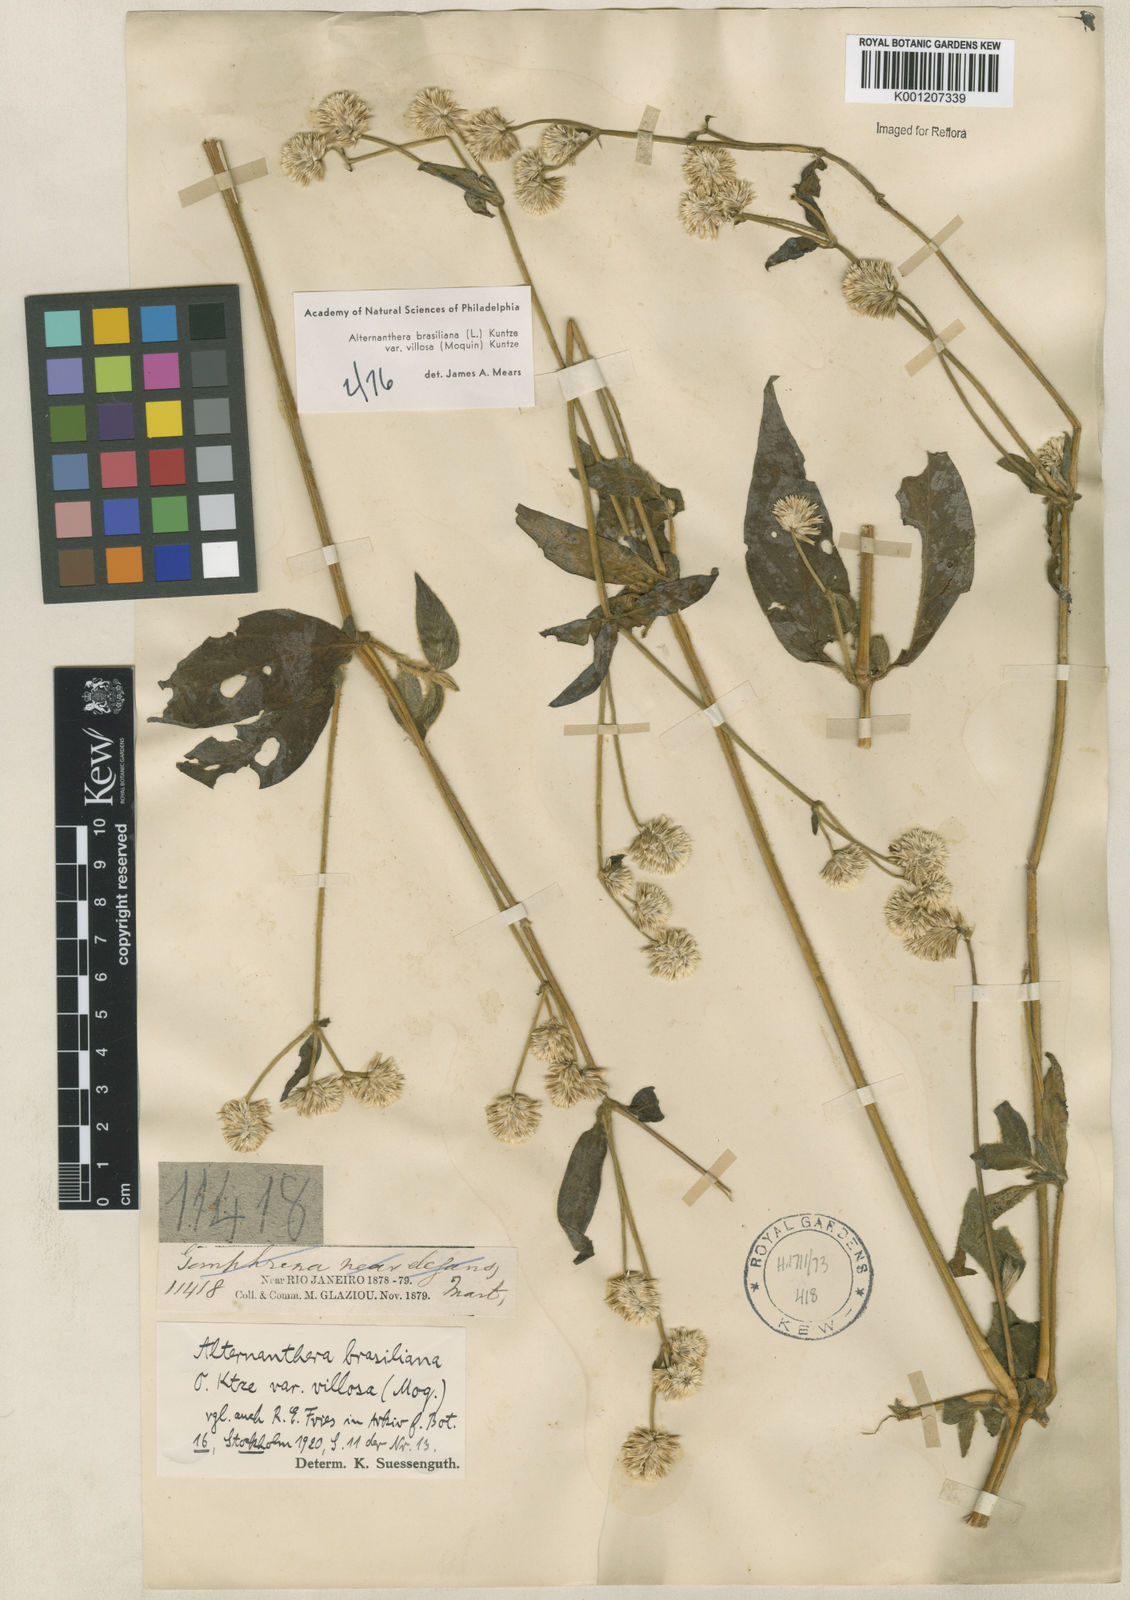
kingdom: Plantae
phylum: Tracheophyta
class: Magnoliopsida
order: Caryophyllales
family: Amaranthaceae
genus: Alternanthera
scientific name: Alternanthera ramosissima
